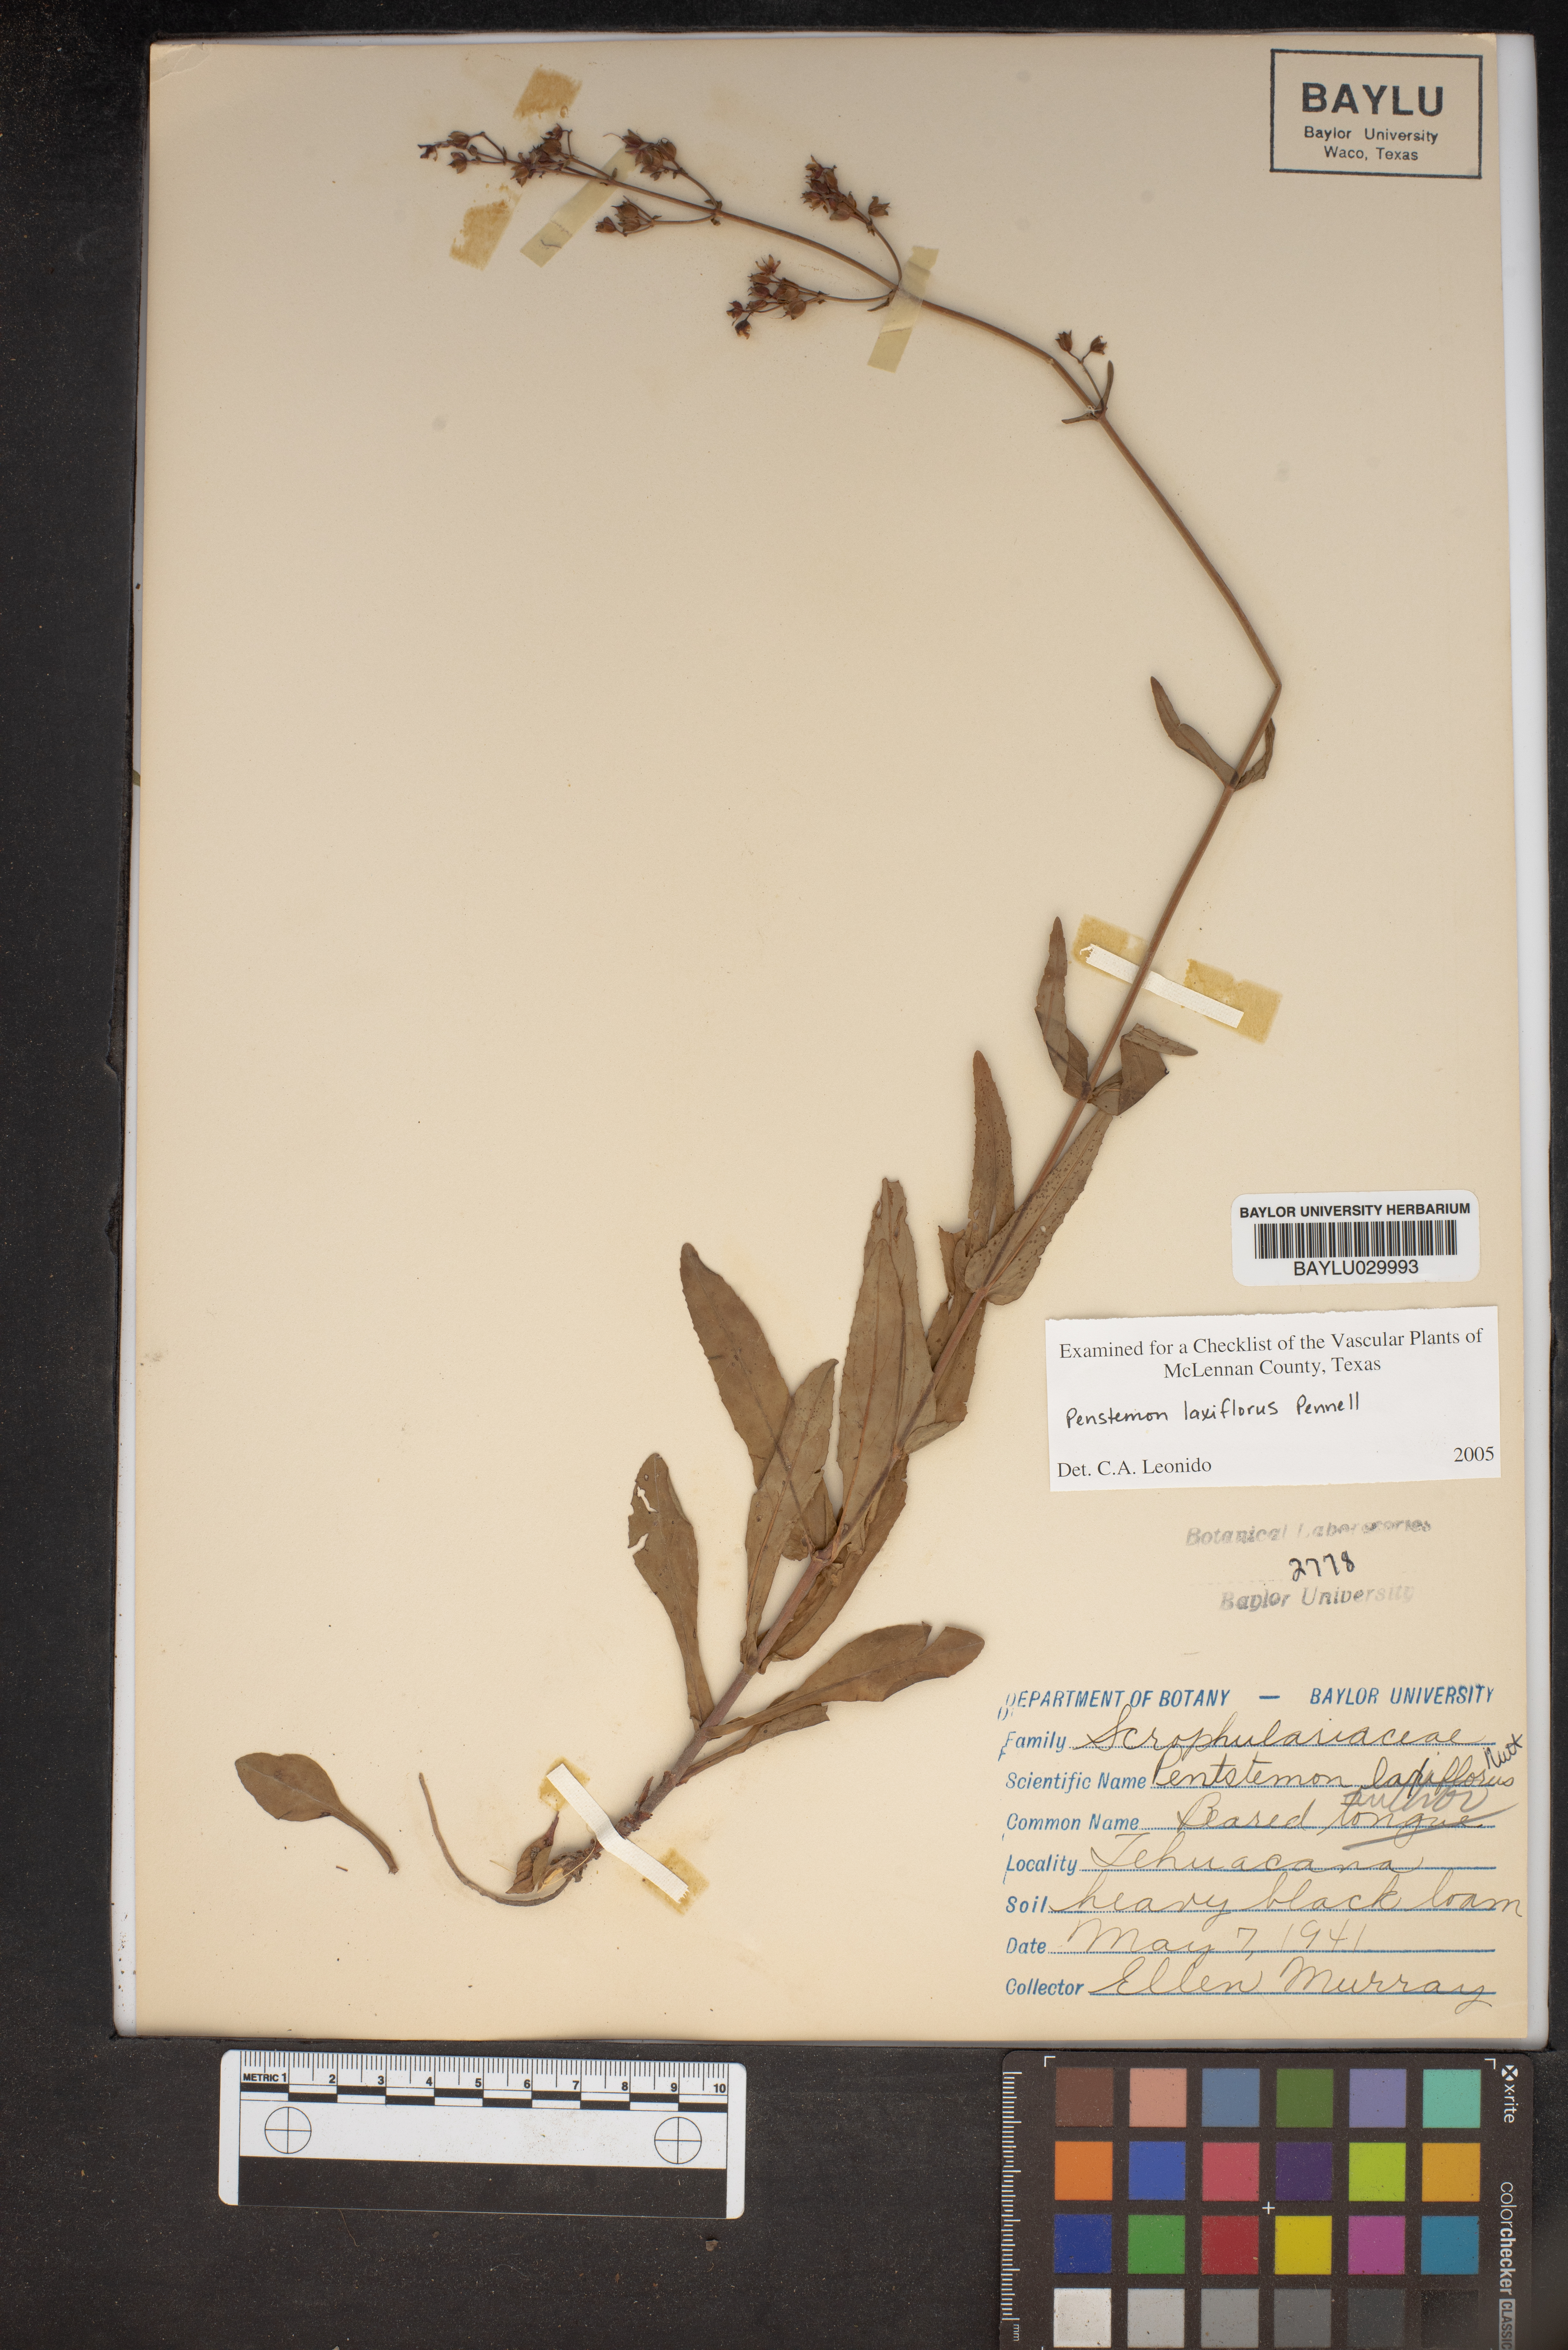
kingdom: Plantae
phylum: Tracheophyta
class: Magnoliopsida
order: Lamiales
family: Plantaginaceae
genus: Penstemon
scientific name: Penstemon laxiflorus
